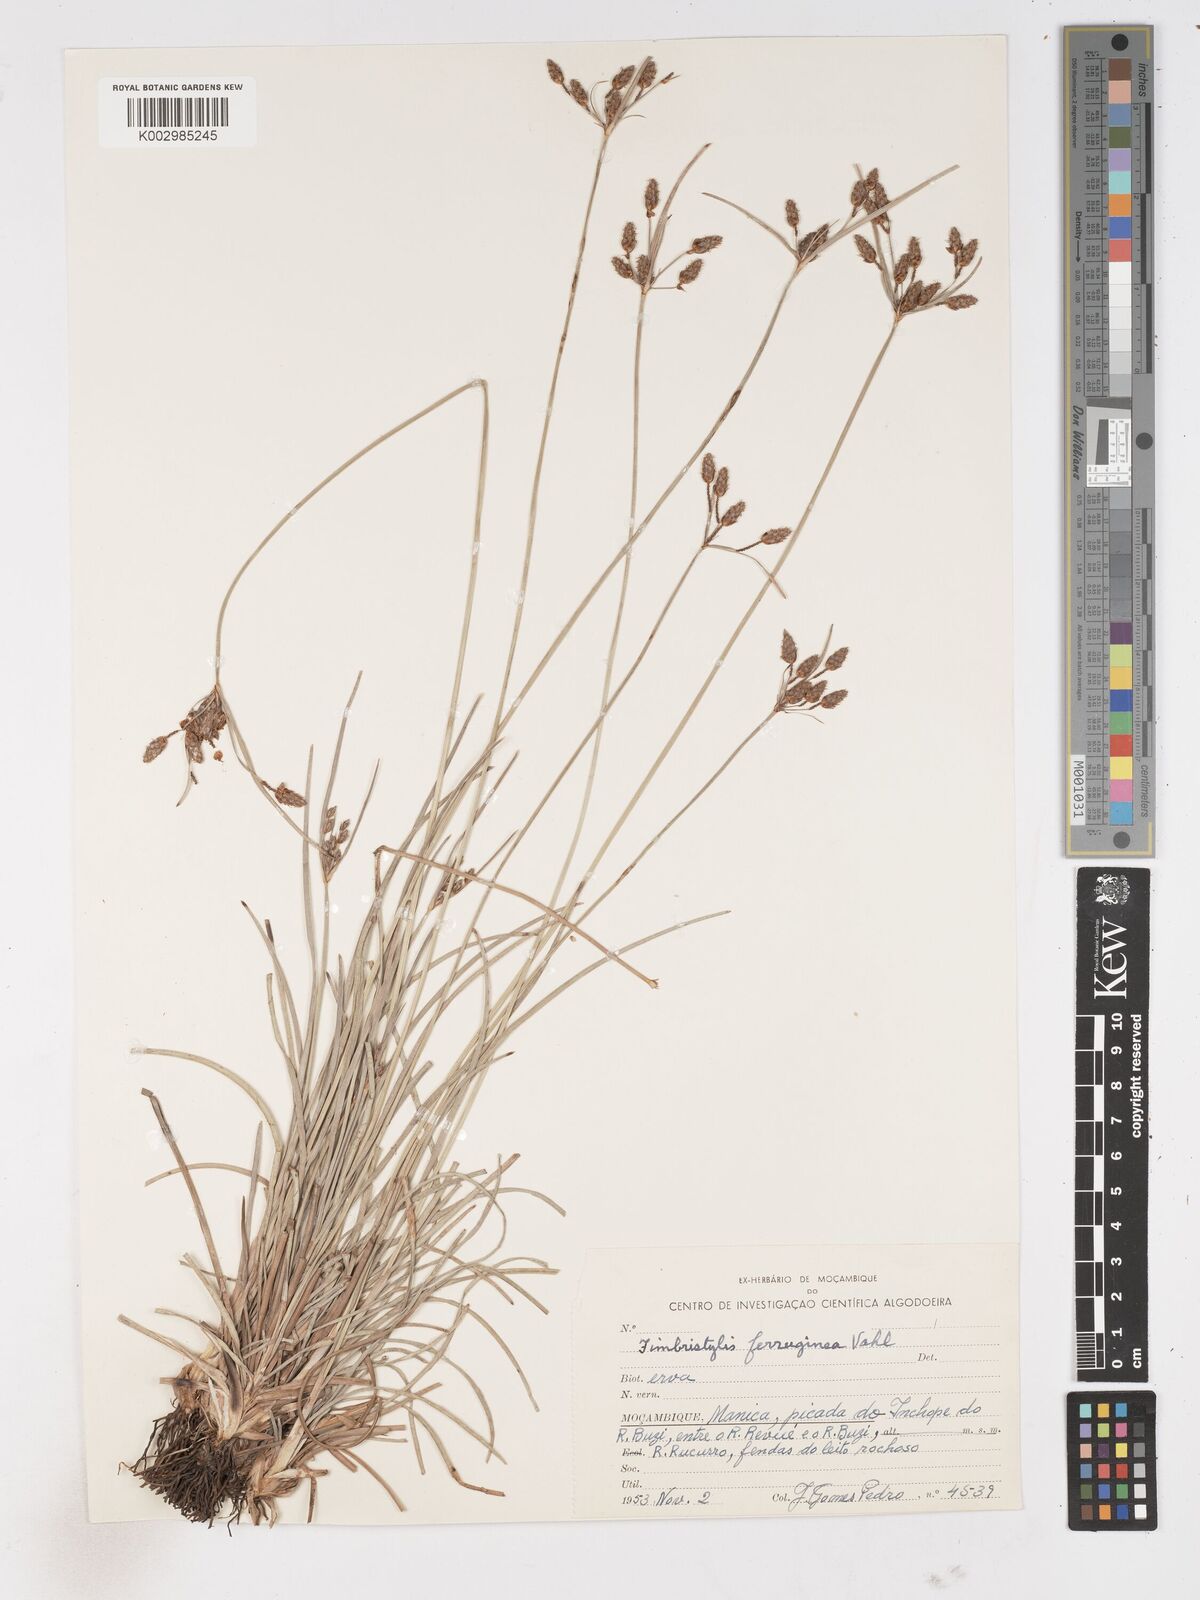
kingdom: Plantae
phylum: Tracheophyta
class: Liliopsida
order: Poales
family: Cyperaceae
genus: Fimbristylis
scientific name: Fimbristylis ferruginea
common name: West indian fimbry
